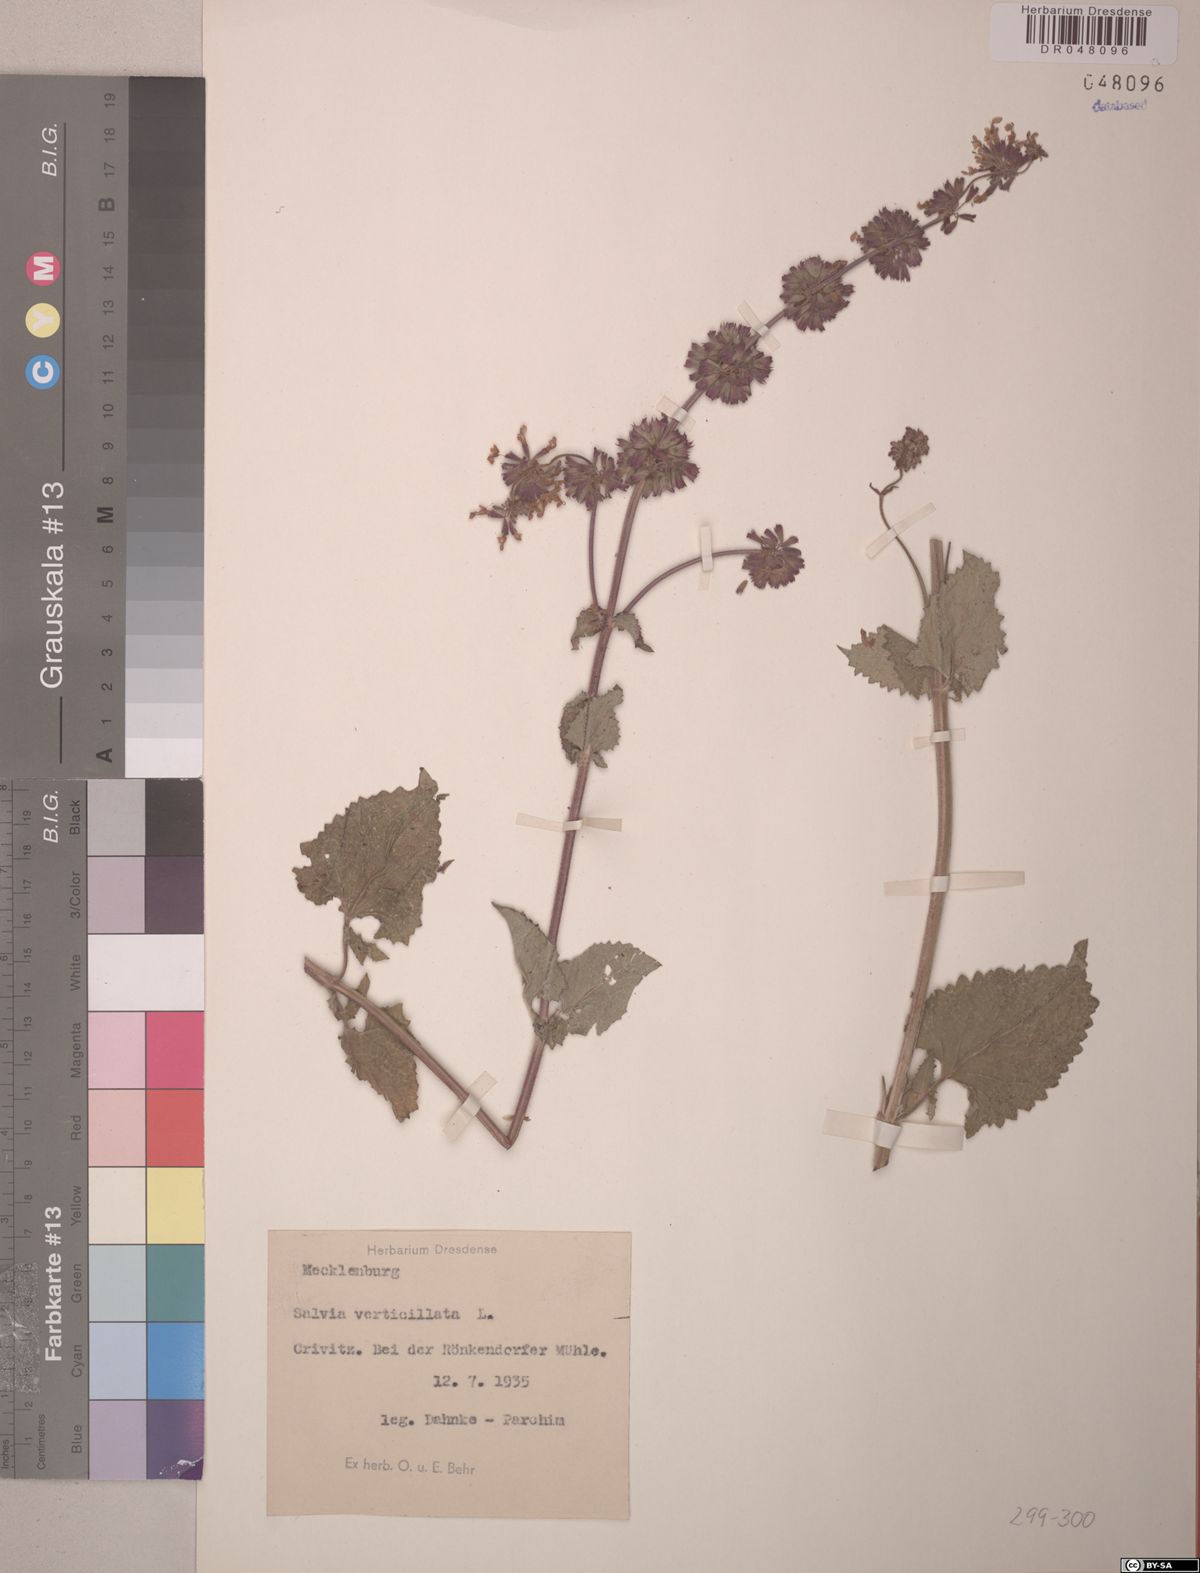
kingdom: Plantae
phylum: Tracheophyta
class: Magnoliopsida
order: Lamiales
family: Lamiaceae
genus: Salvia
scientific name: Salvia verticillata
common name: Whorled clary
